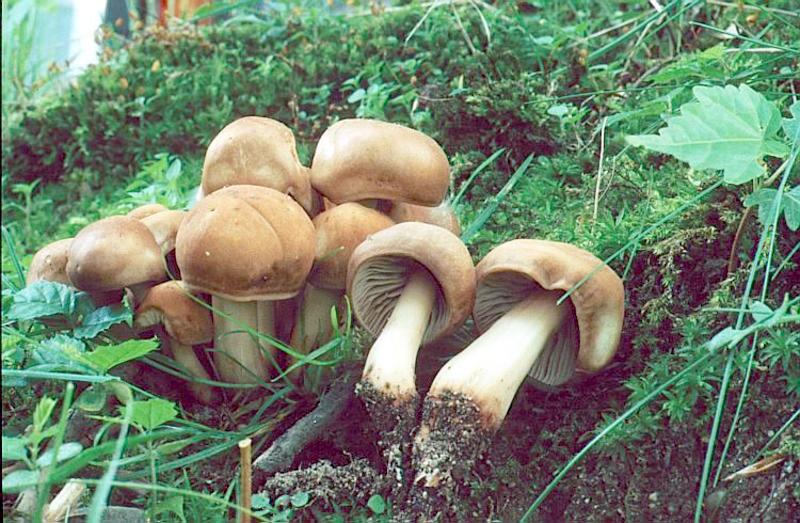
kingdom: Fungi
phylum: Basidiomycota
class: Agaricomycetes
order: Agaricales
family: Omphalotaceae
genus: Gymnopus
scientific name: Gymnopus fusipes
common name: Spindle shank
